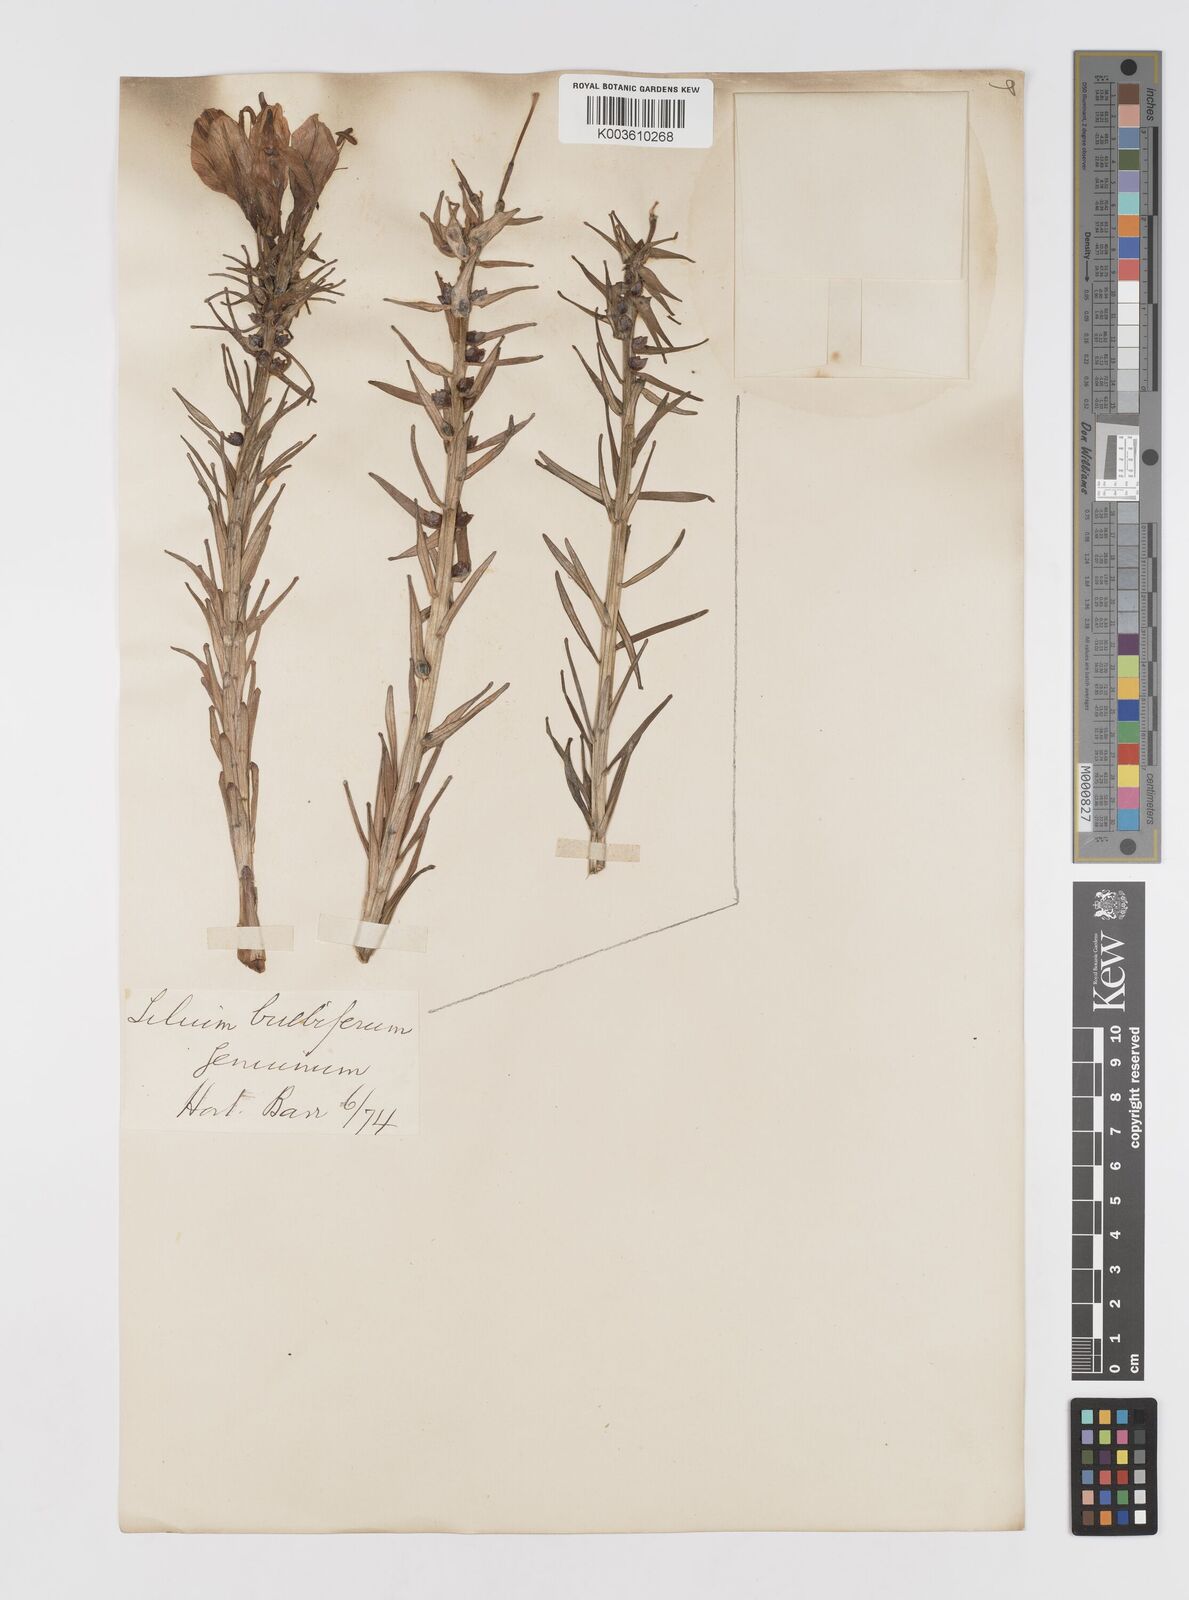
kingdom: Plantae
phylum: Tracheophyta
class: Liliopsida
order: Liliales
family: Liliaceae
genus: Lilium
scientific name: Lilium bulbiferum
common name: Orange lily
